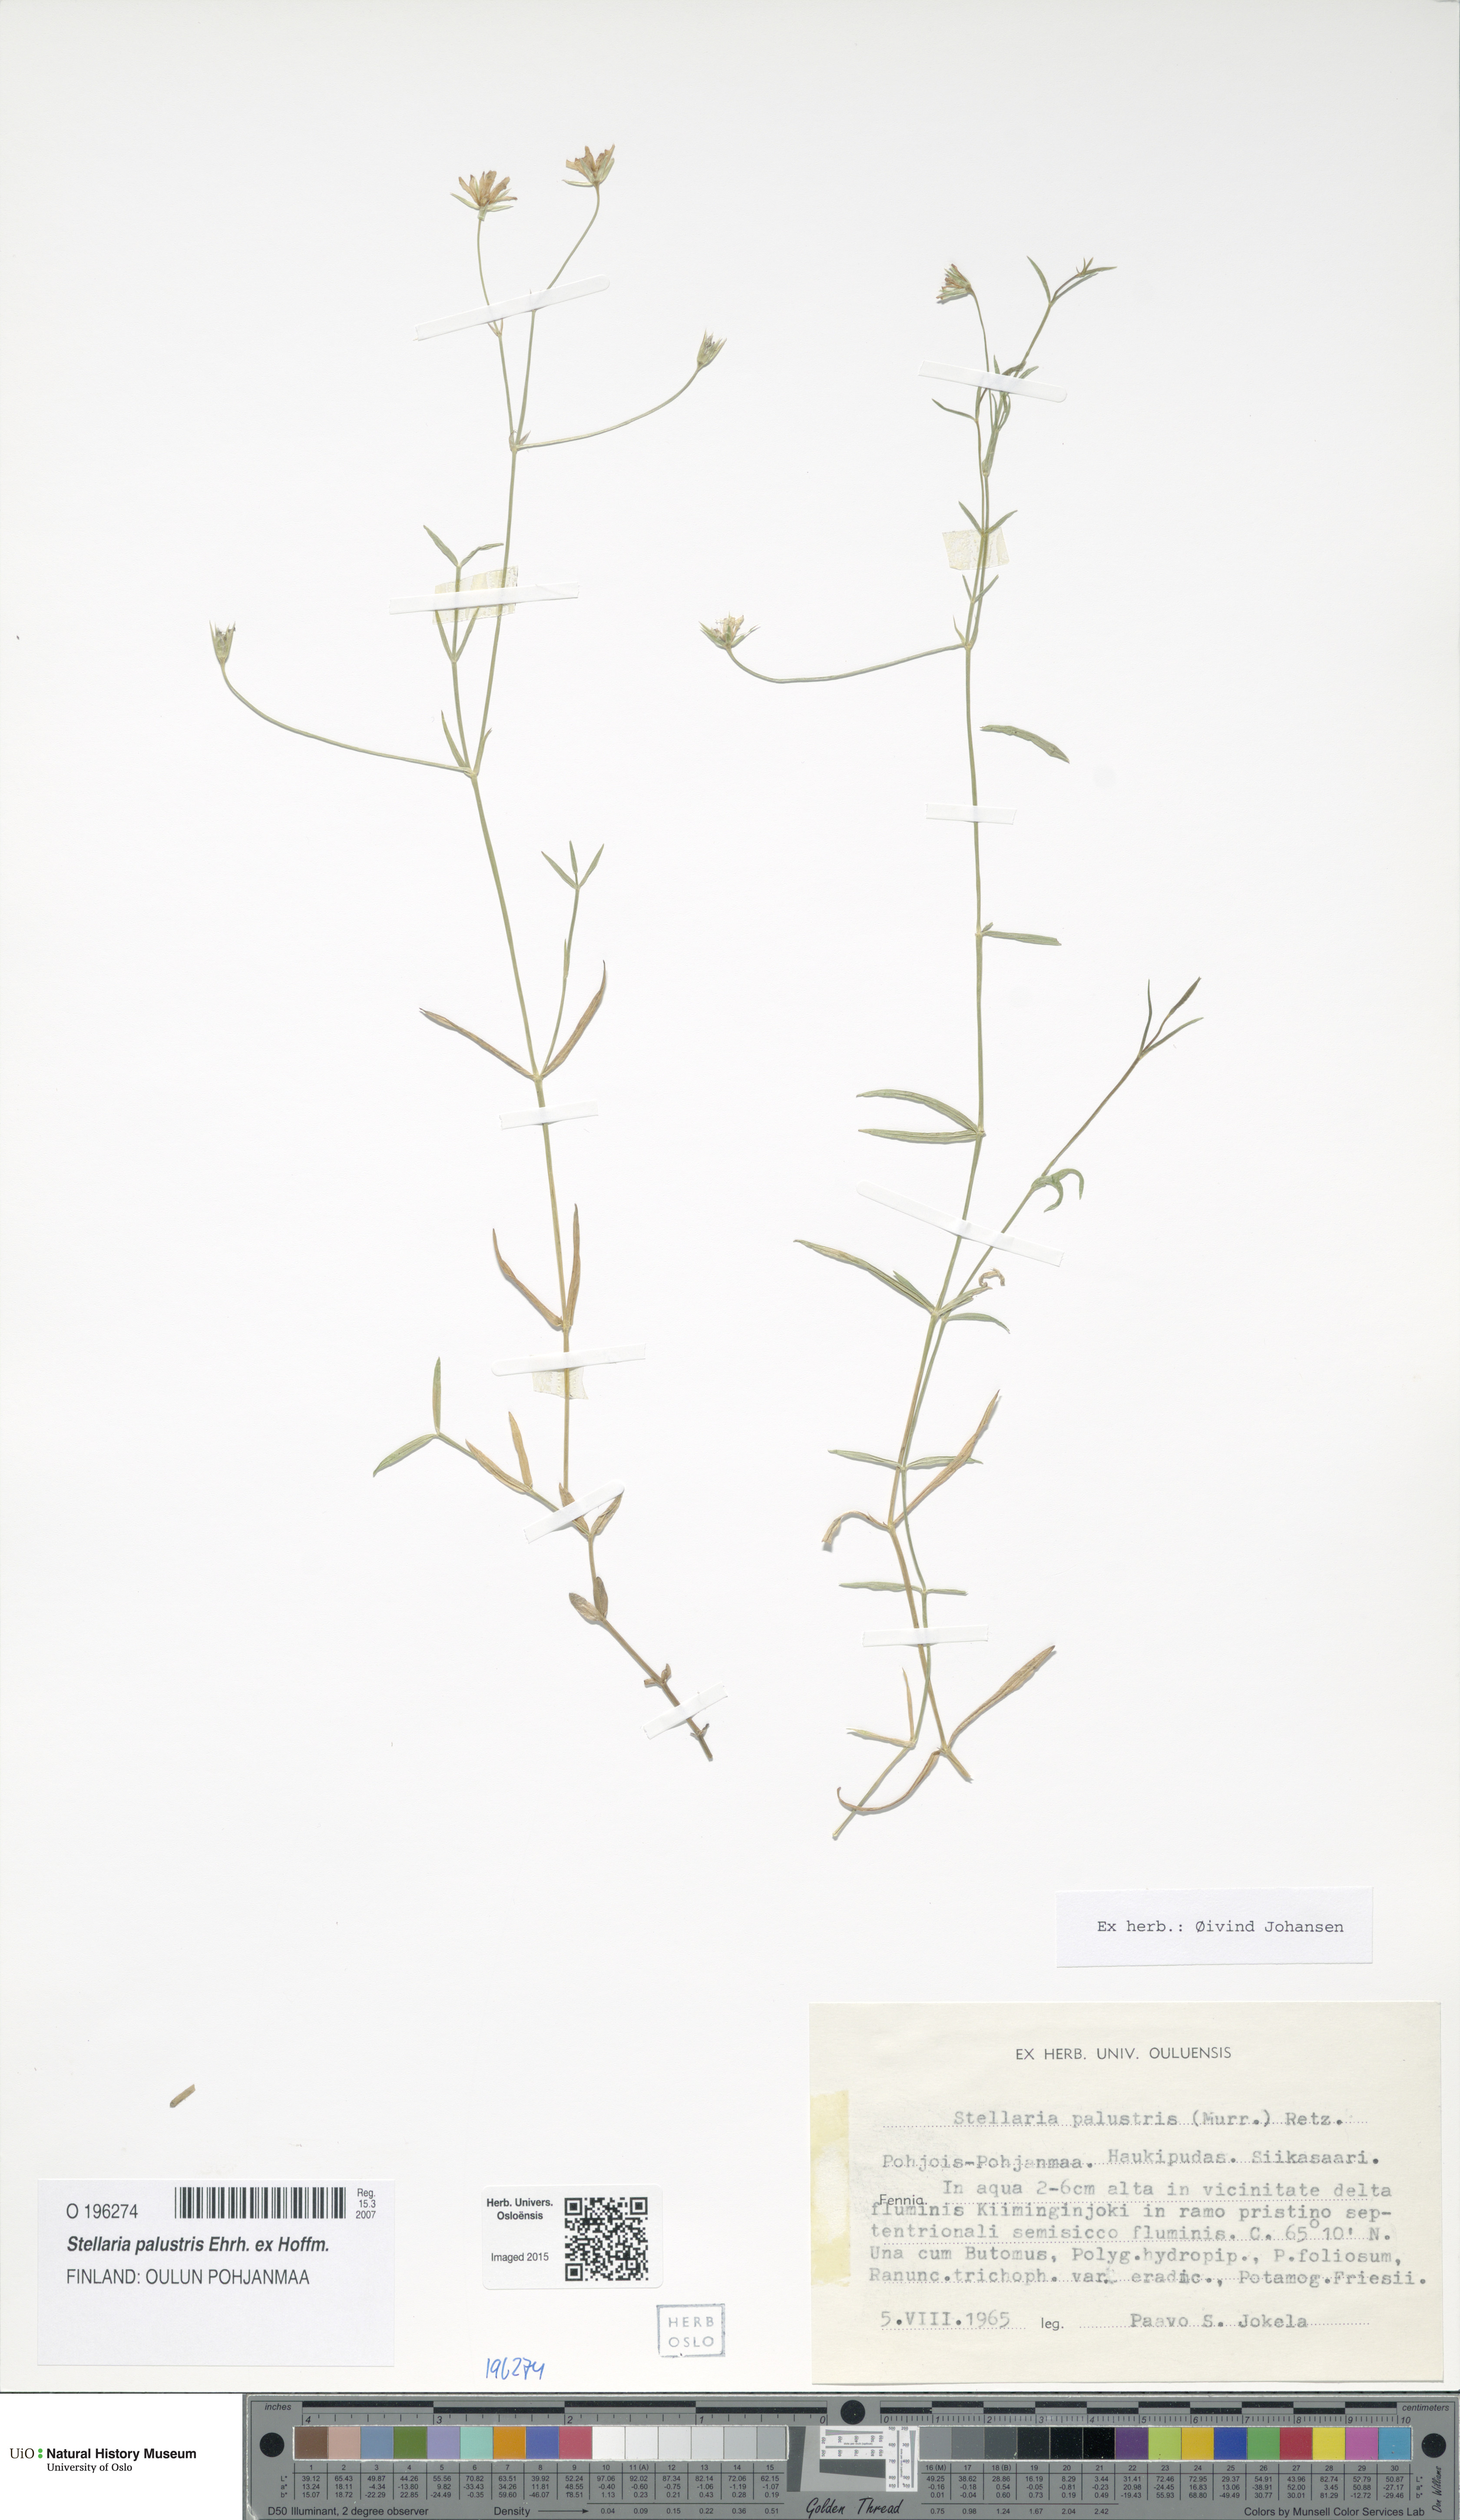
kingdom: Plantae
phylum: Tracheophyta
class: Magnoliopsida
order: Caryophyllales
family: Caryophyllaceae
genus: Stellaria
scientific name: Stellaria palustris
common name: Marsh stitchwort
